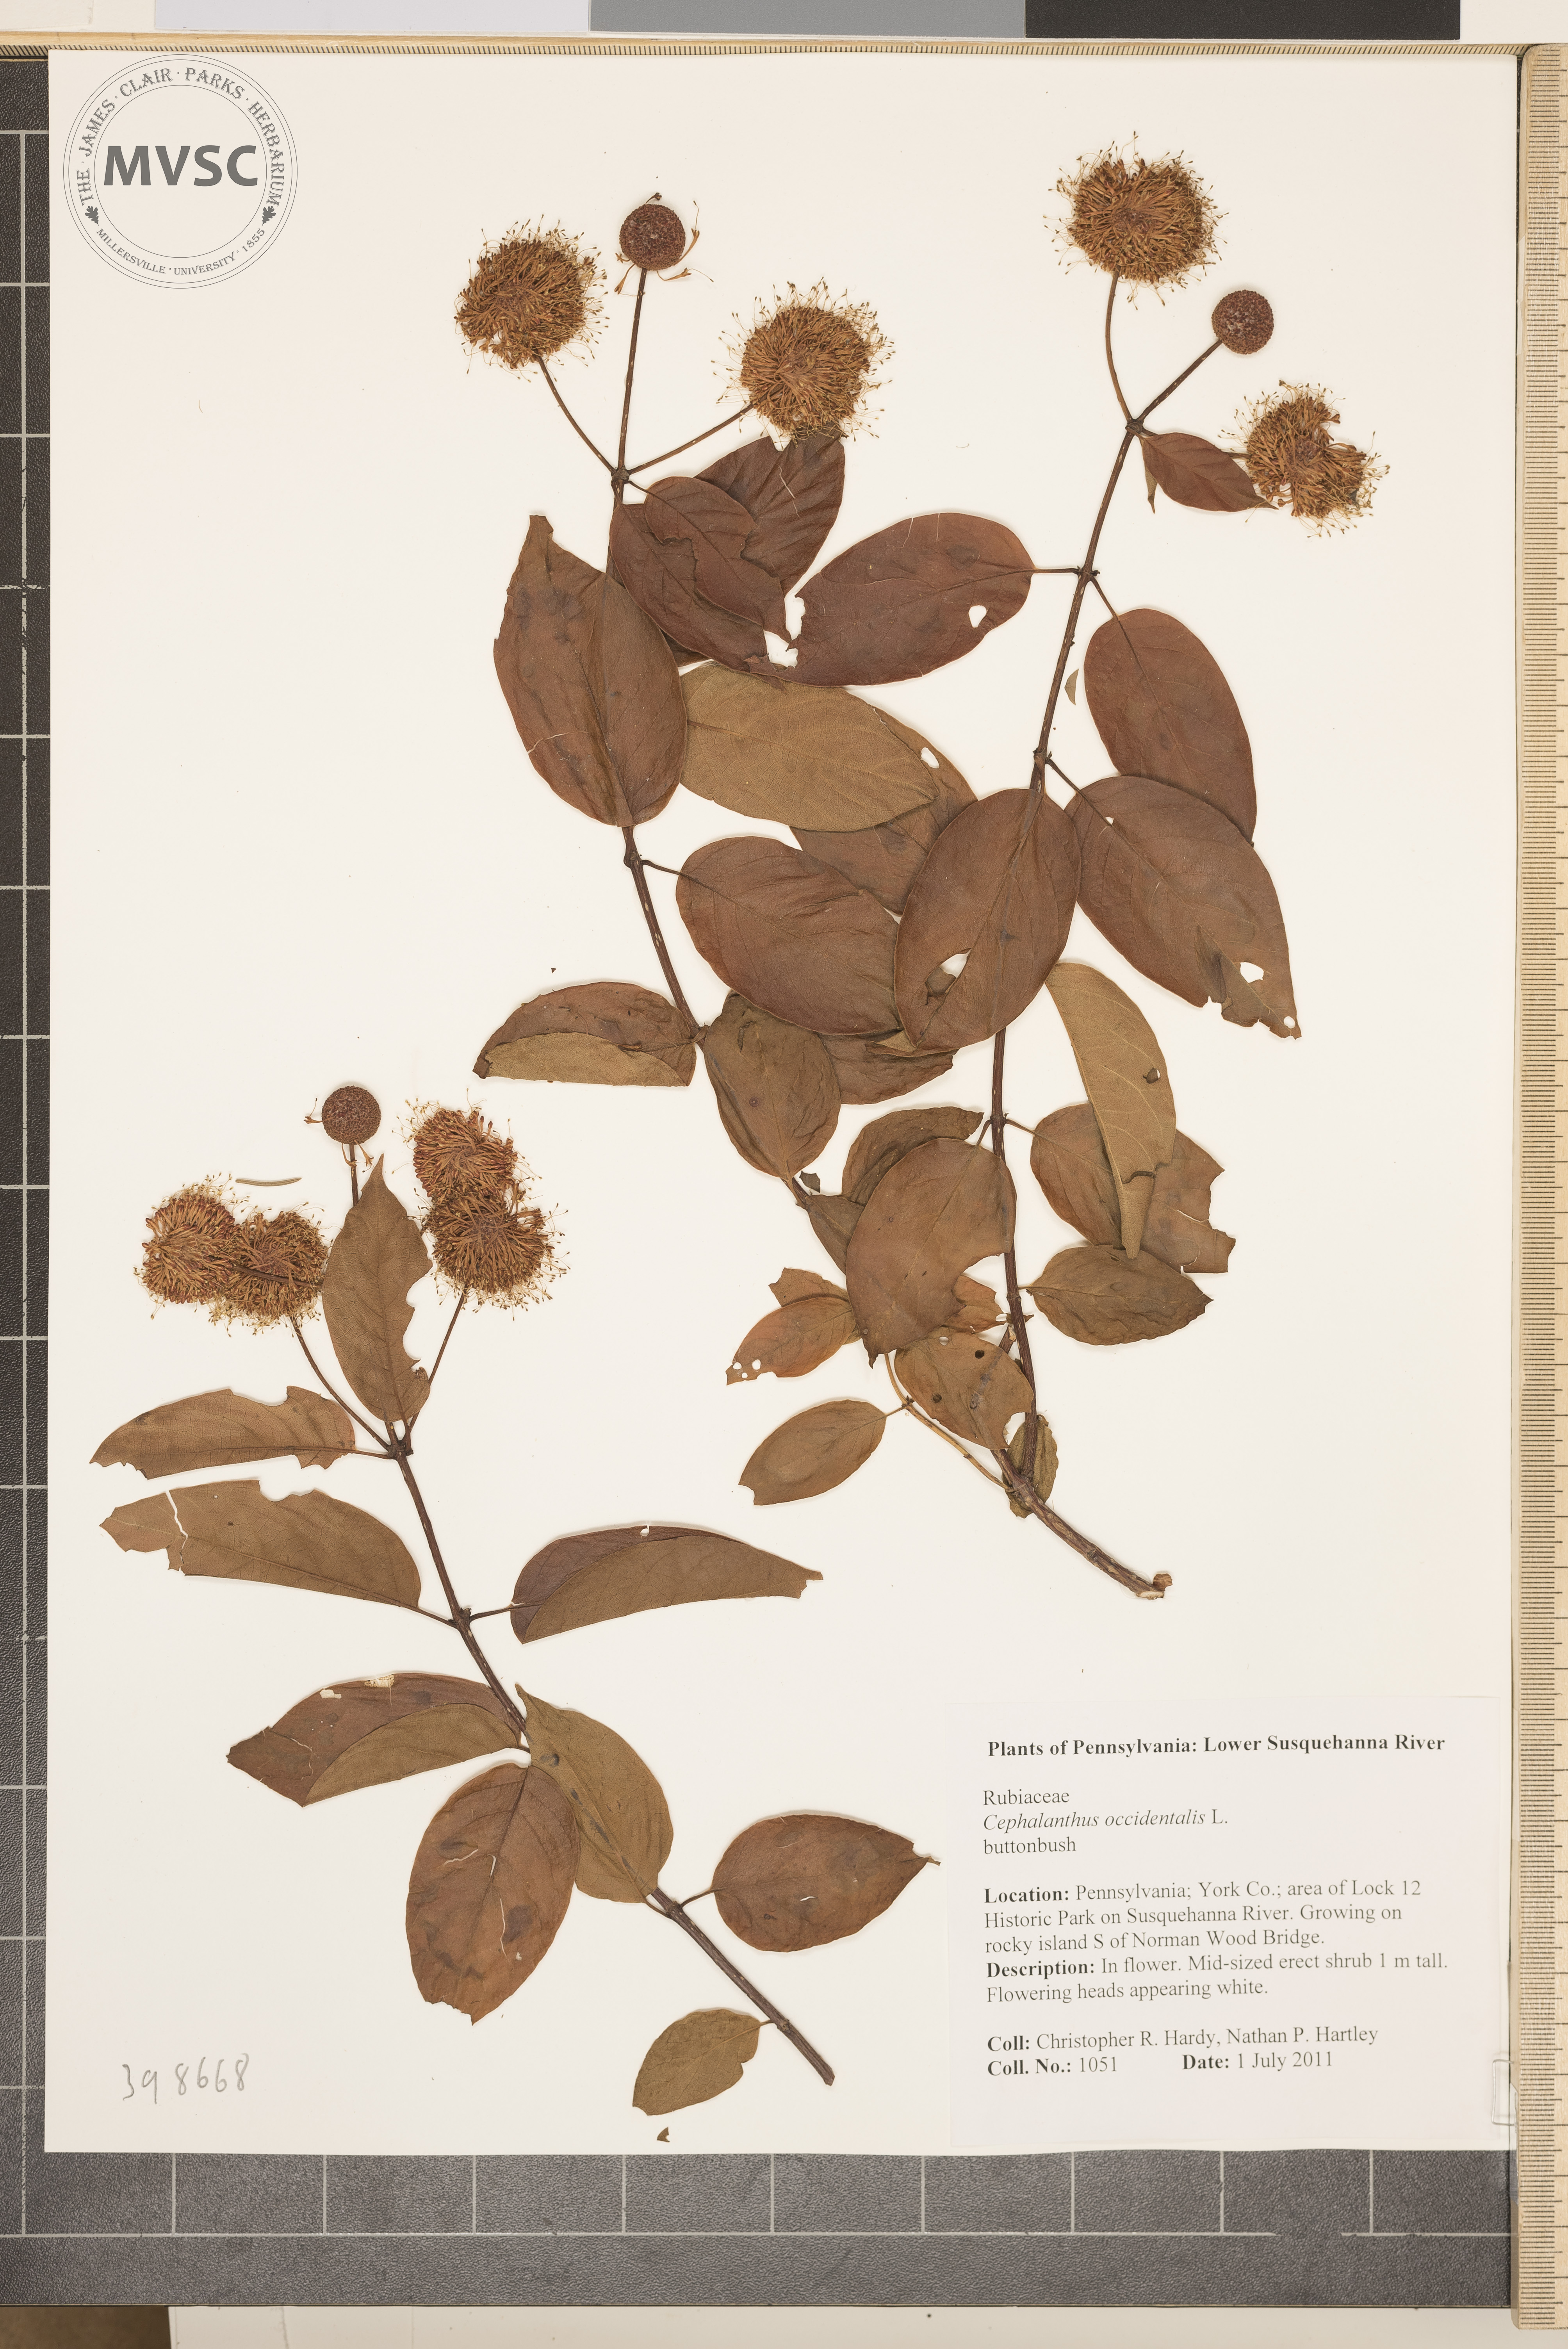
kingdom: Plantae
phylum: Tracheophyta
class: Magnoliopsida
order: Gentianales
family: Rubiaceae
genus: Cephalanthus
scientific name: Cephalanthus occidentalis
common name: Buttonbush
